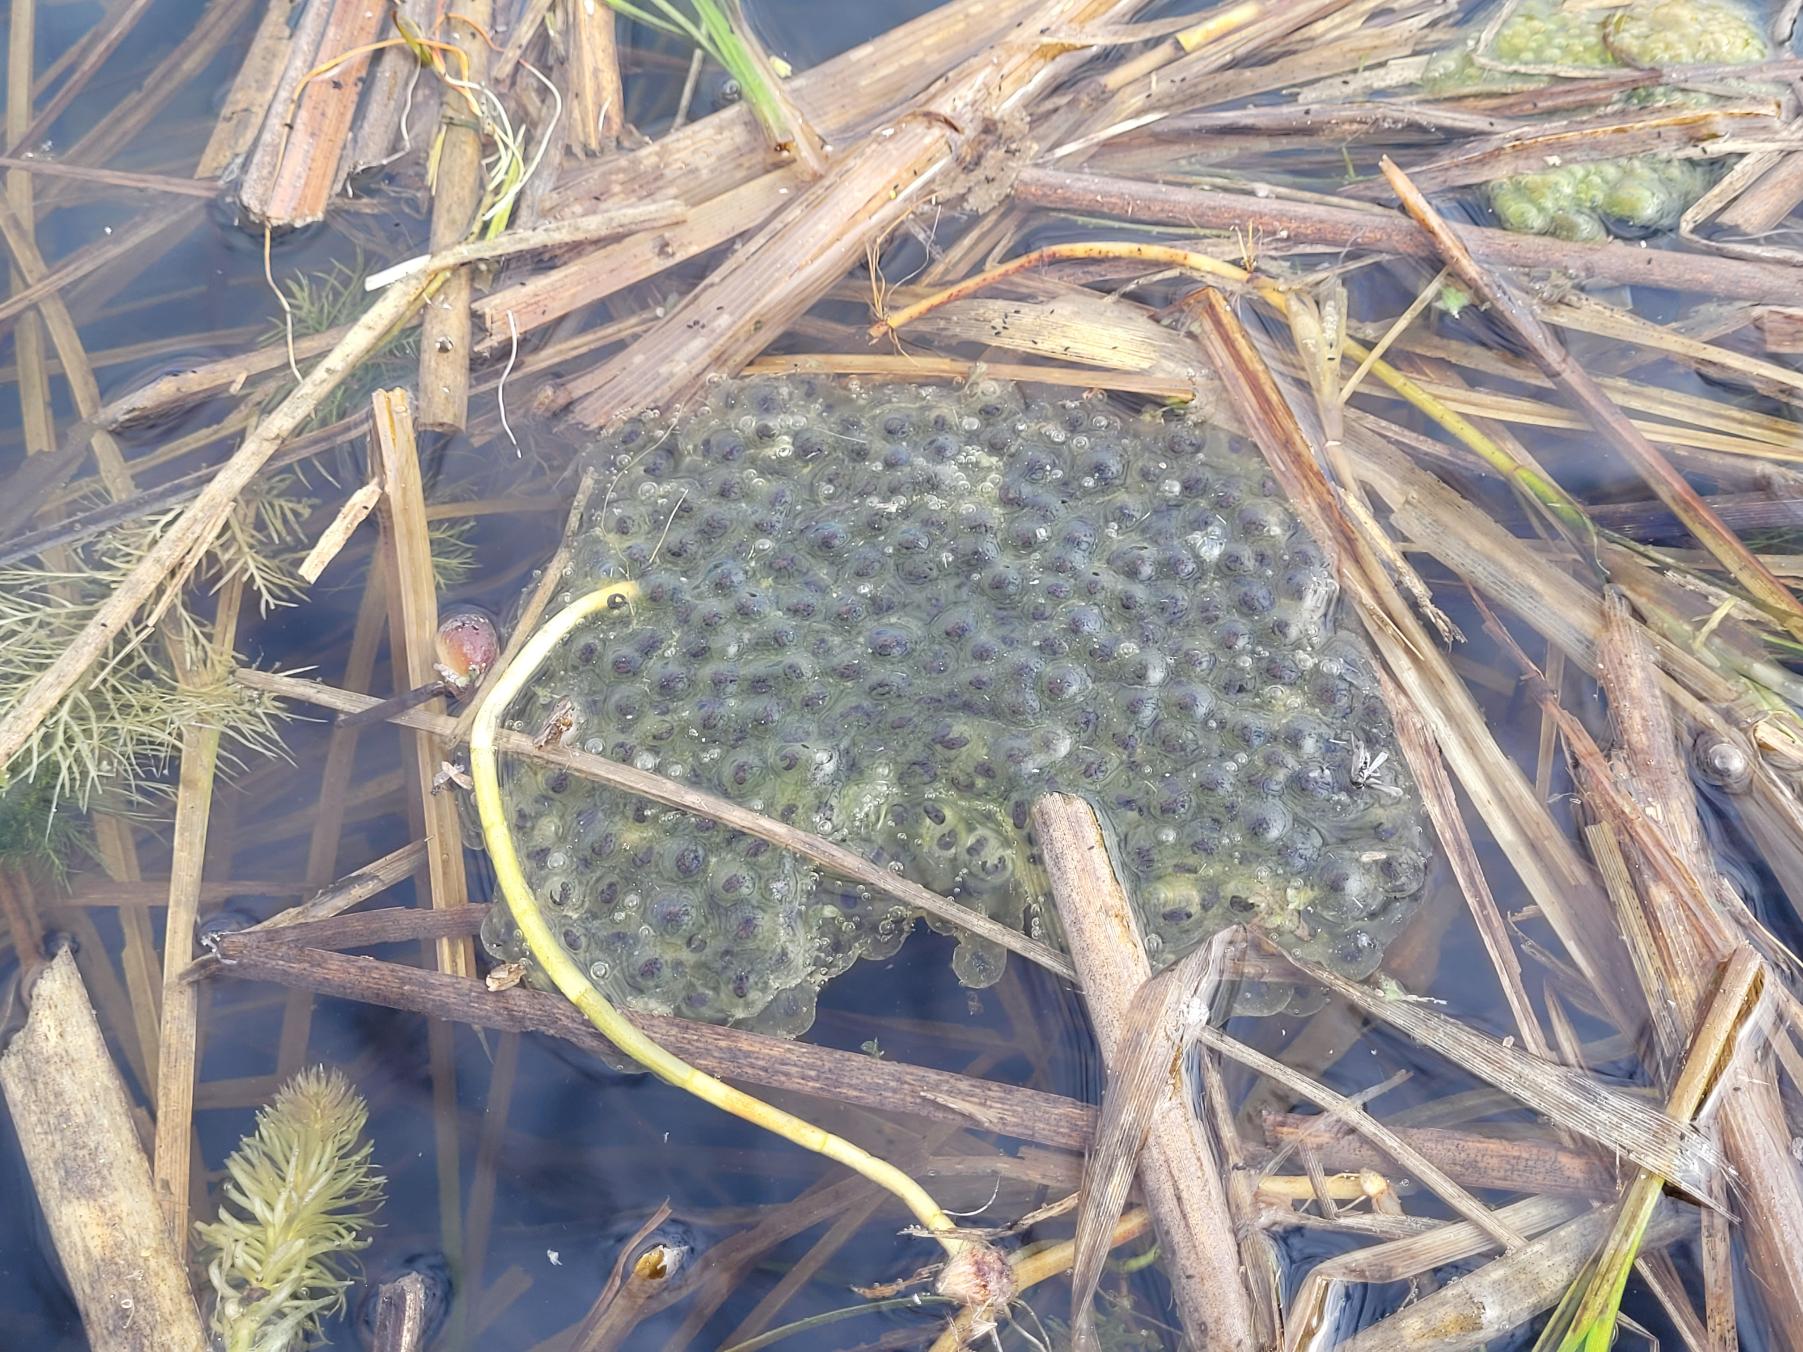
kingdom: Animalia
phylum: Chordata
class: Amphibia
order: Anura
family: Ranidae
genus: Rana
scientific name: Rana dalmatina
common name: Springfrø
